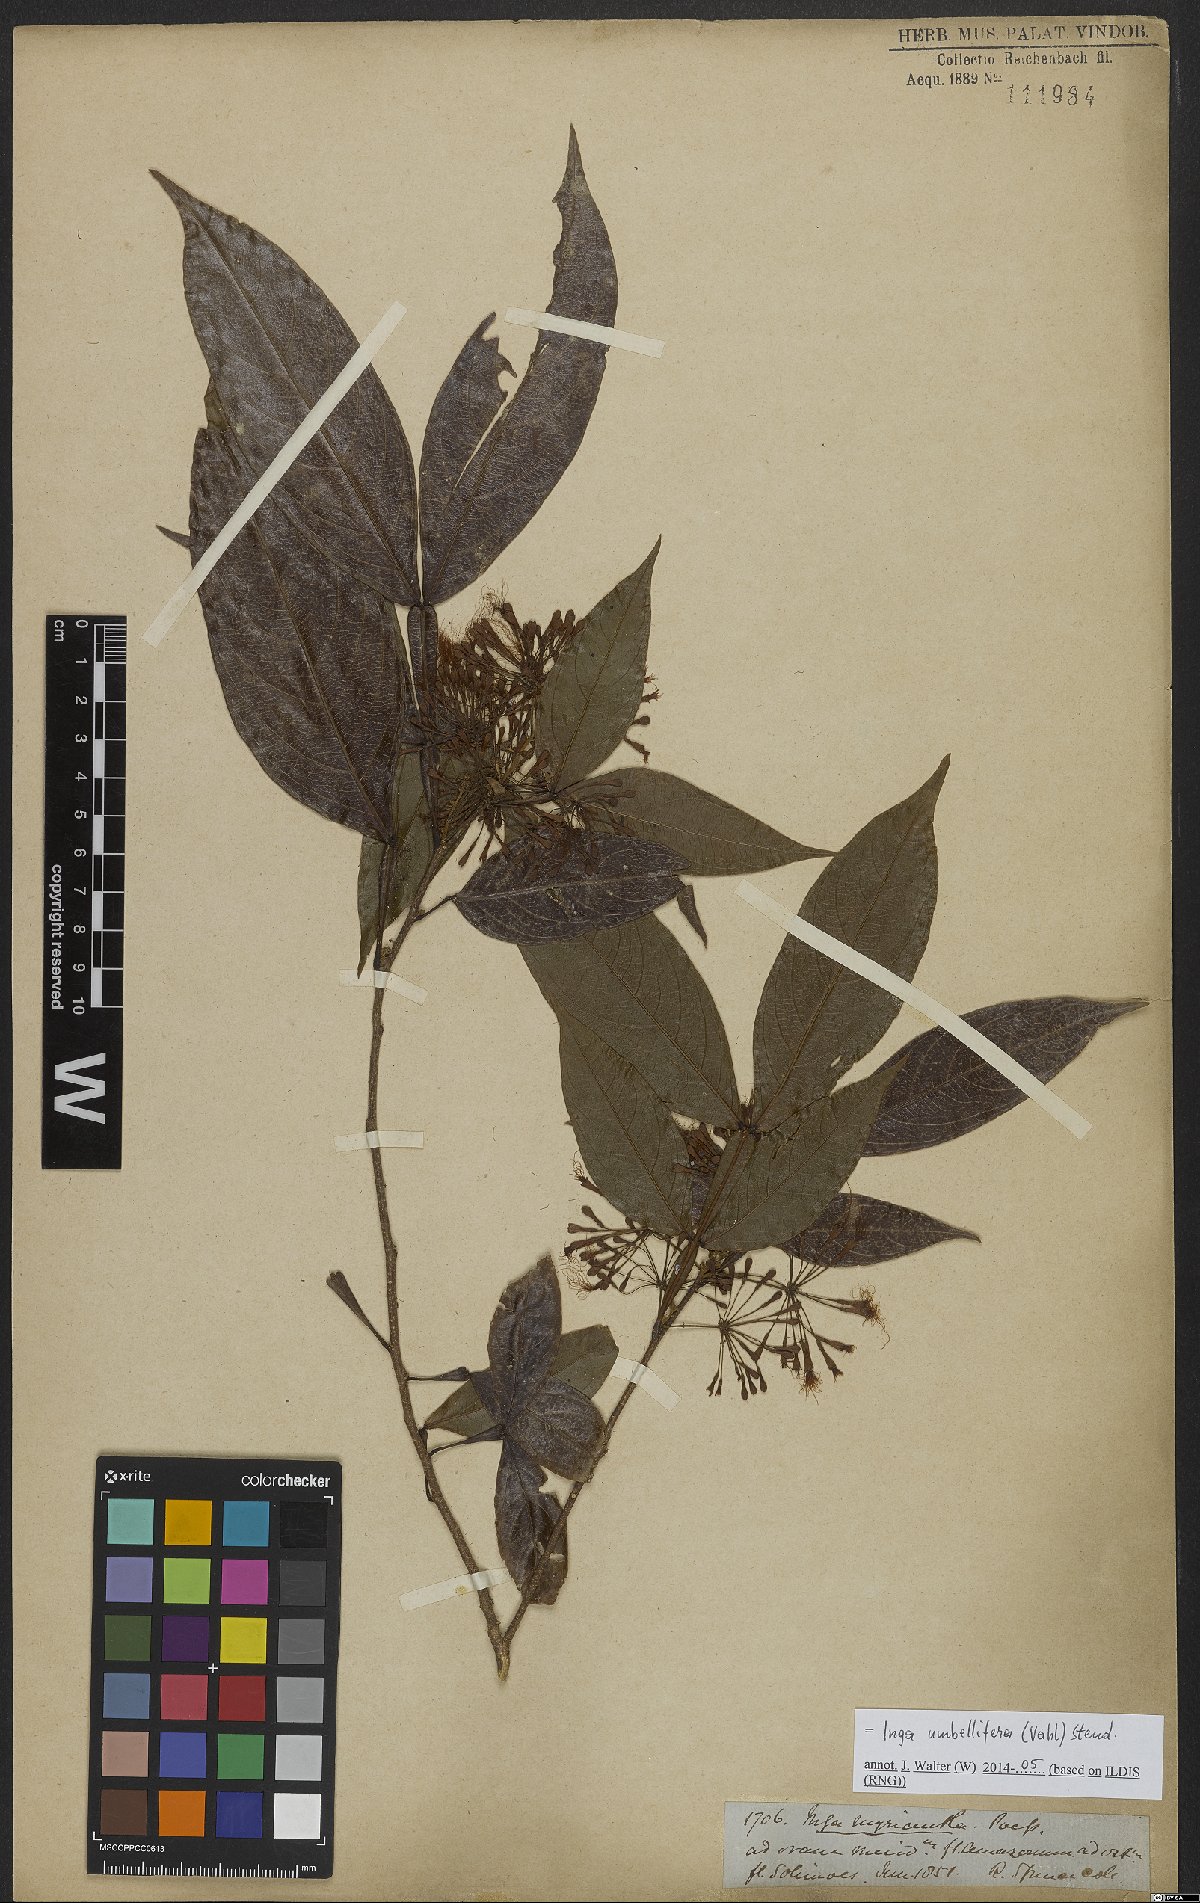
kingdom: Plantae
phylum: Tracheophyta
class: Magnoliopsida
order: Fabales
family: Fabaceae
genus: Inga
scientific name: Inga umbellifera
